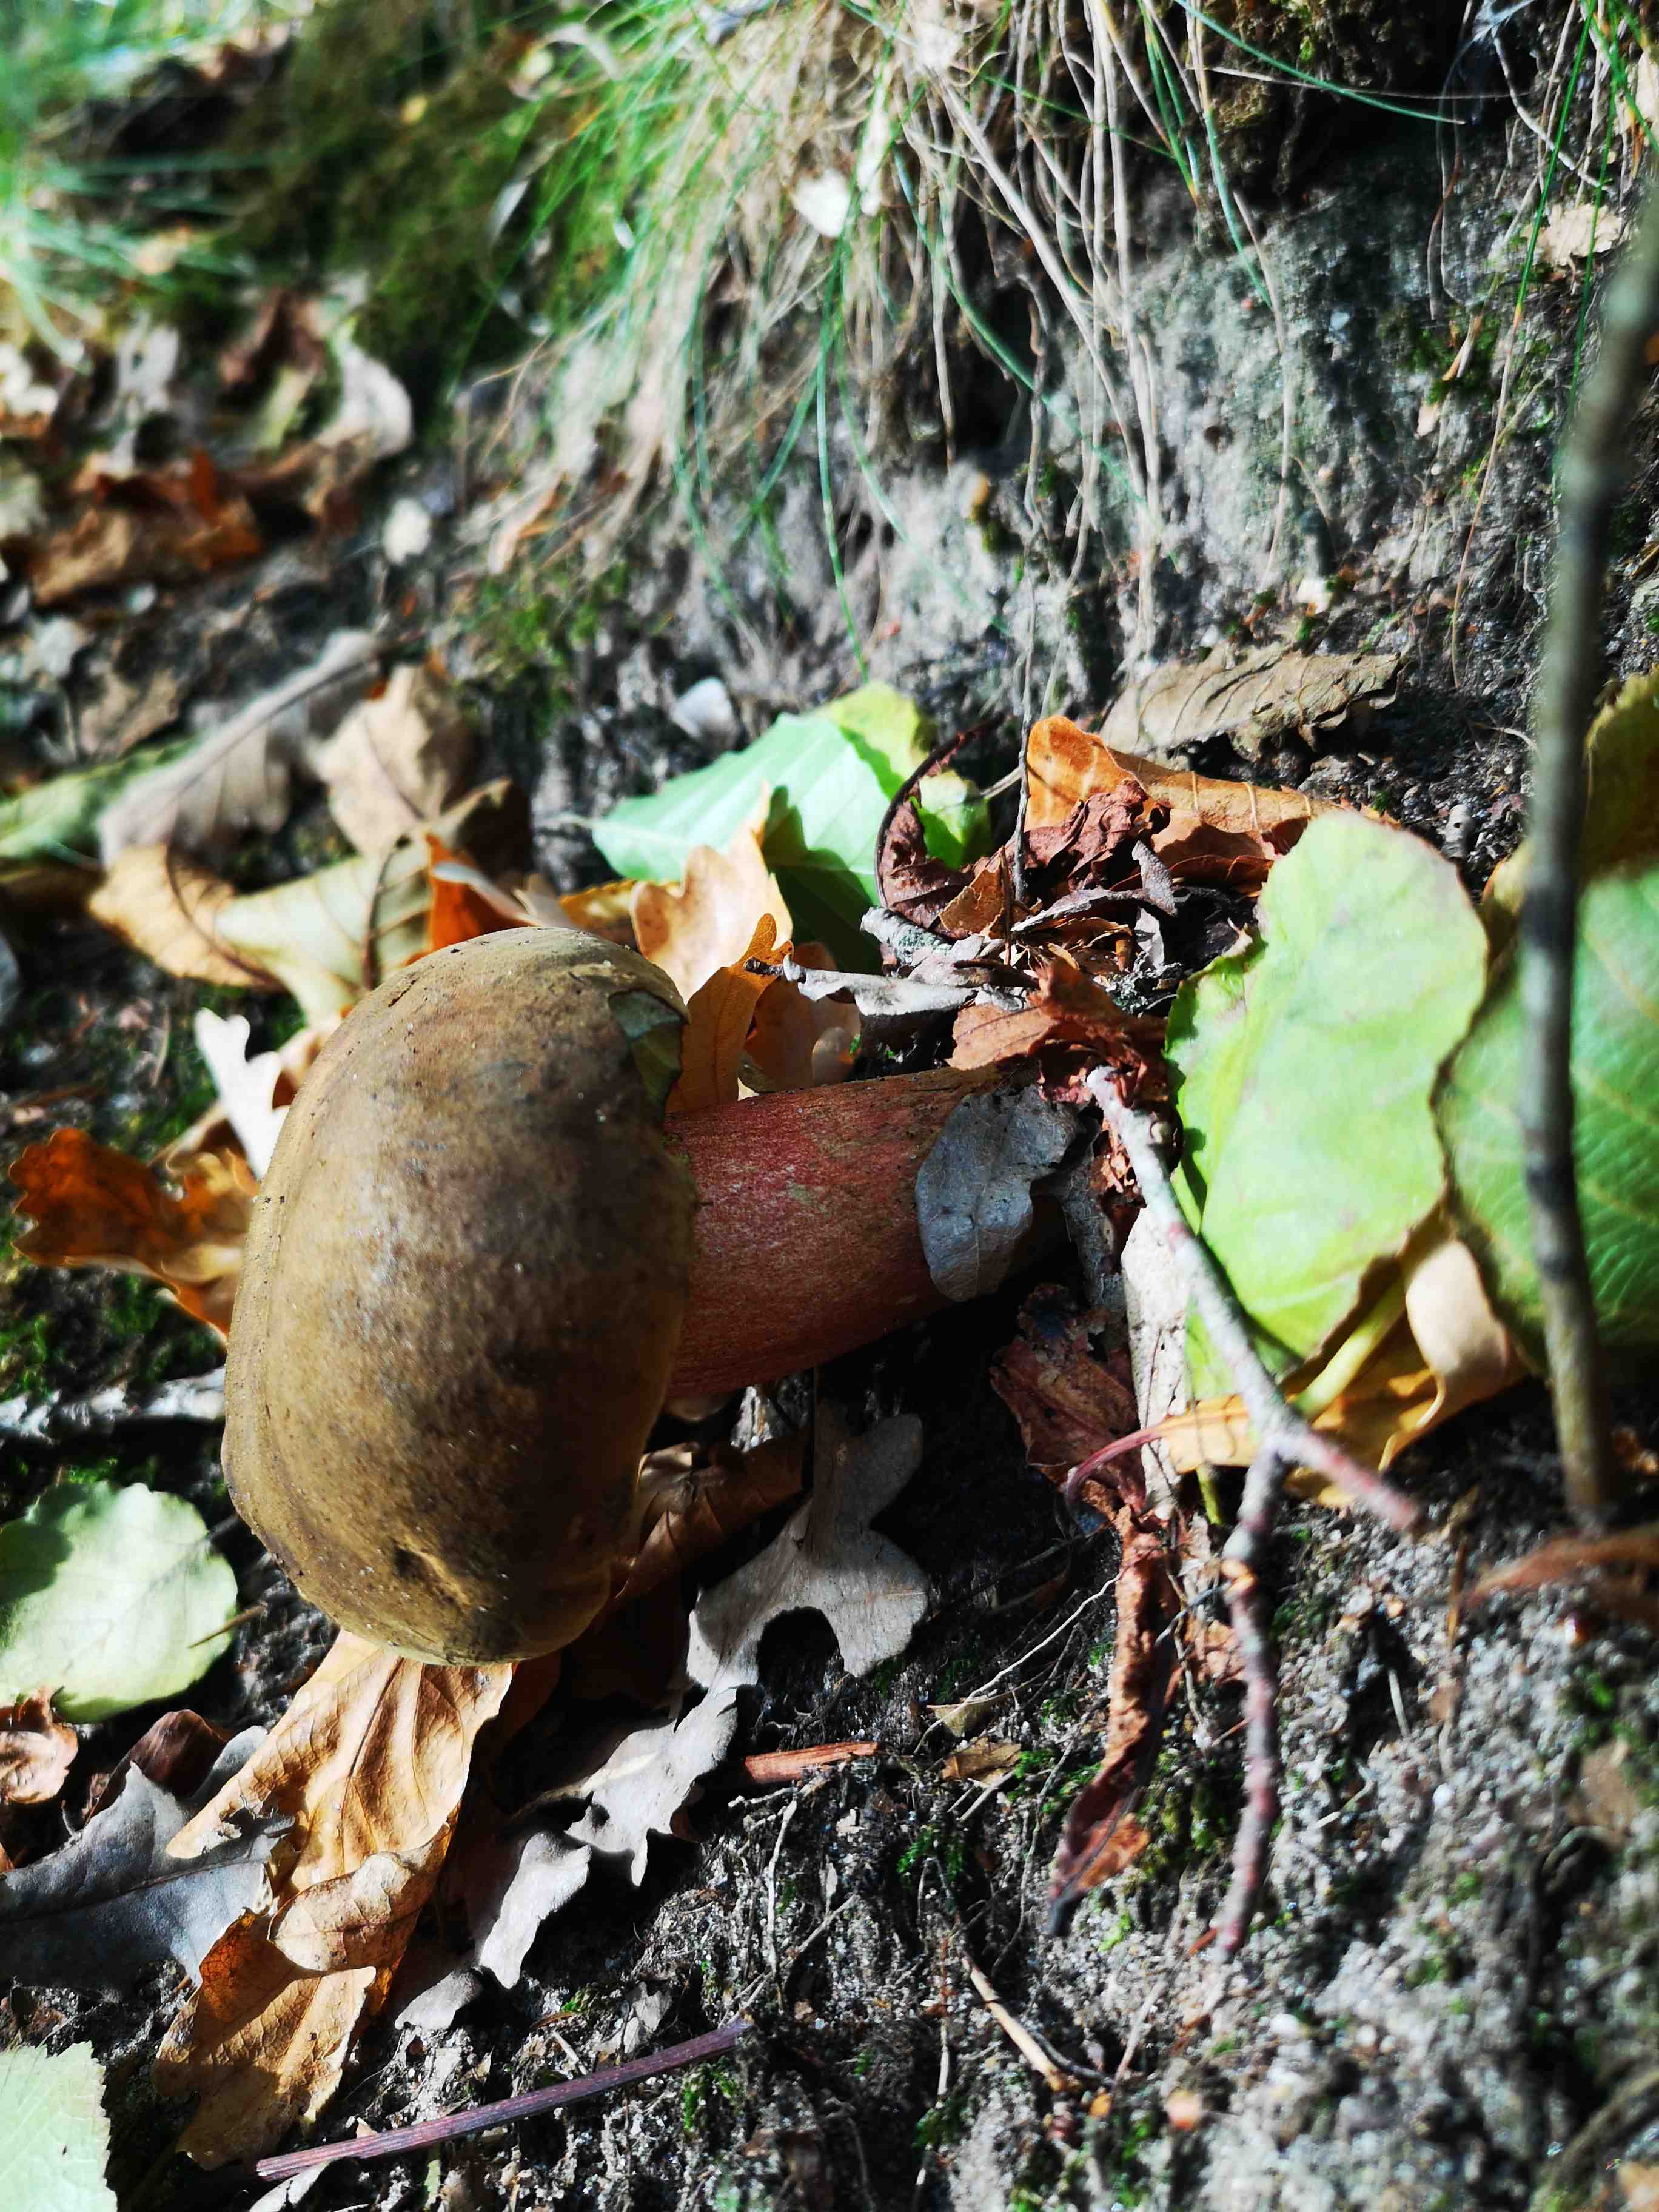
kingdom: Fungi
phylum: Basidiomycota
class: Agaricomycetes
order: Boletales
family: Boletaceae
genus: Neoboletus
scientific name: Neoboletus erythropus
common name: punktstokket indigorørhat
